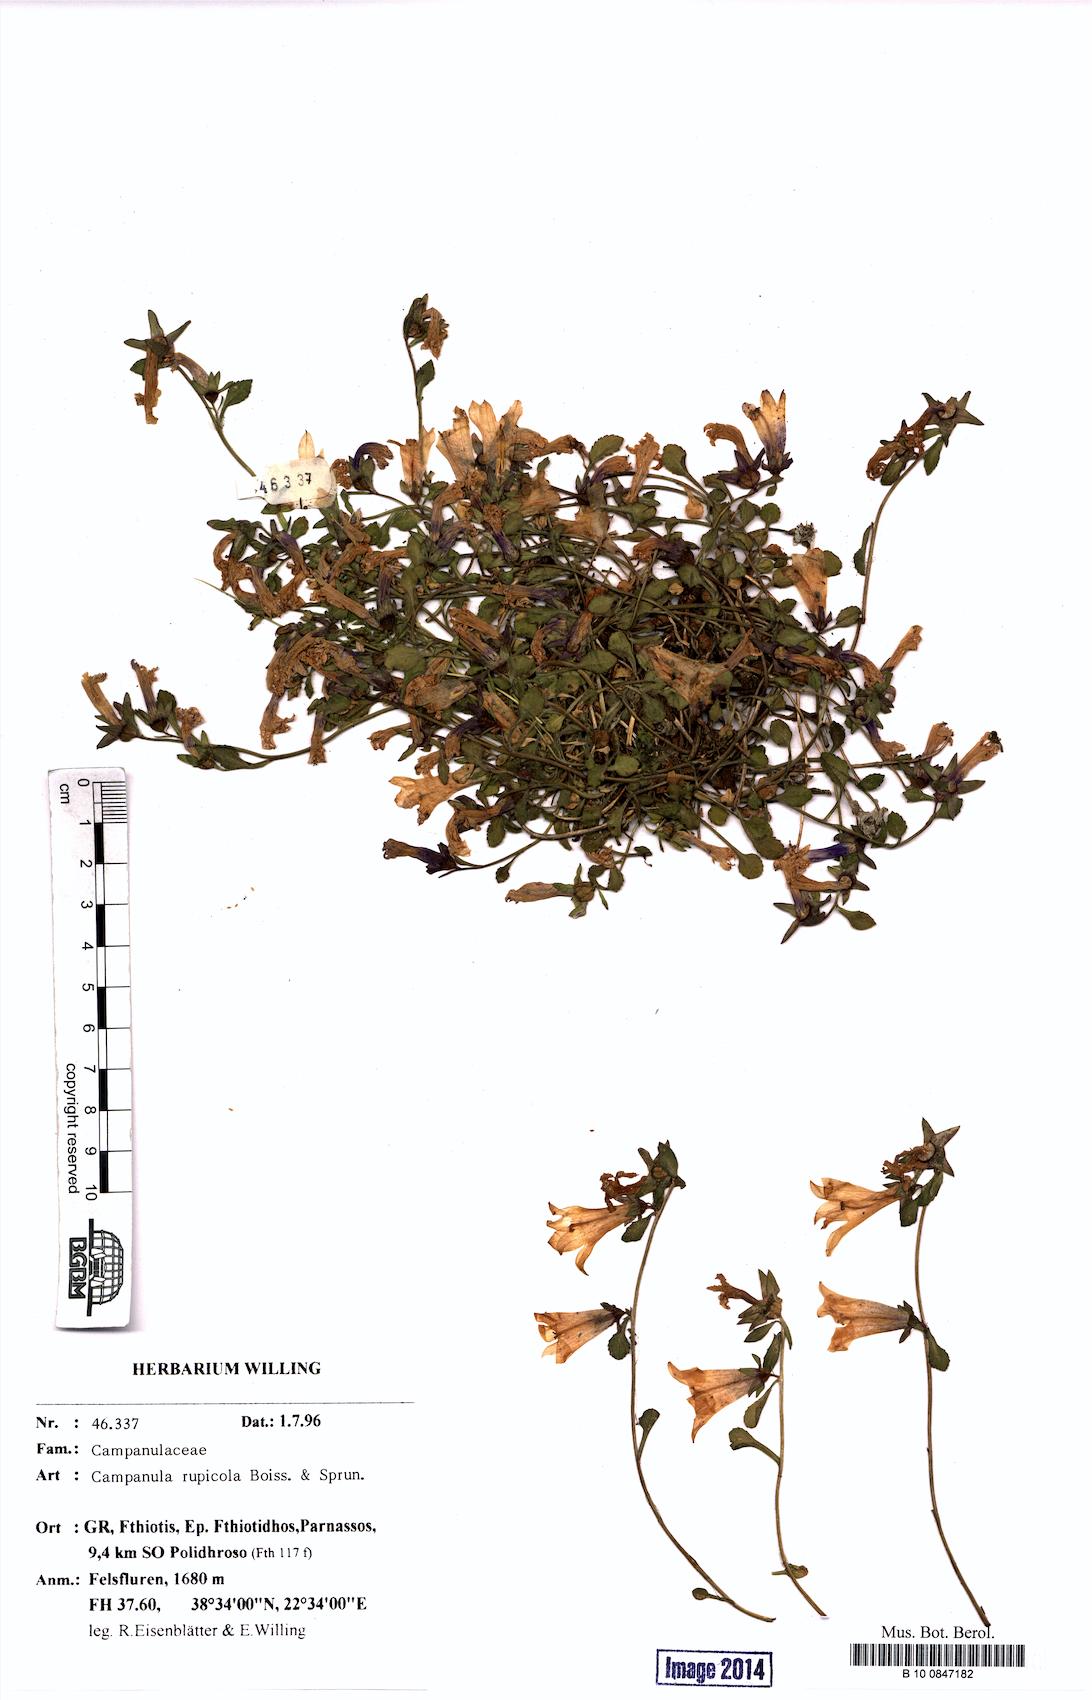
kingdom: Plantae
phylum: Tracheophyta
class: Magnoliopsida
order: Asterales
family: Campanulaceae
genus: Campanula
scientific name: Campanula rupicola
